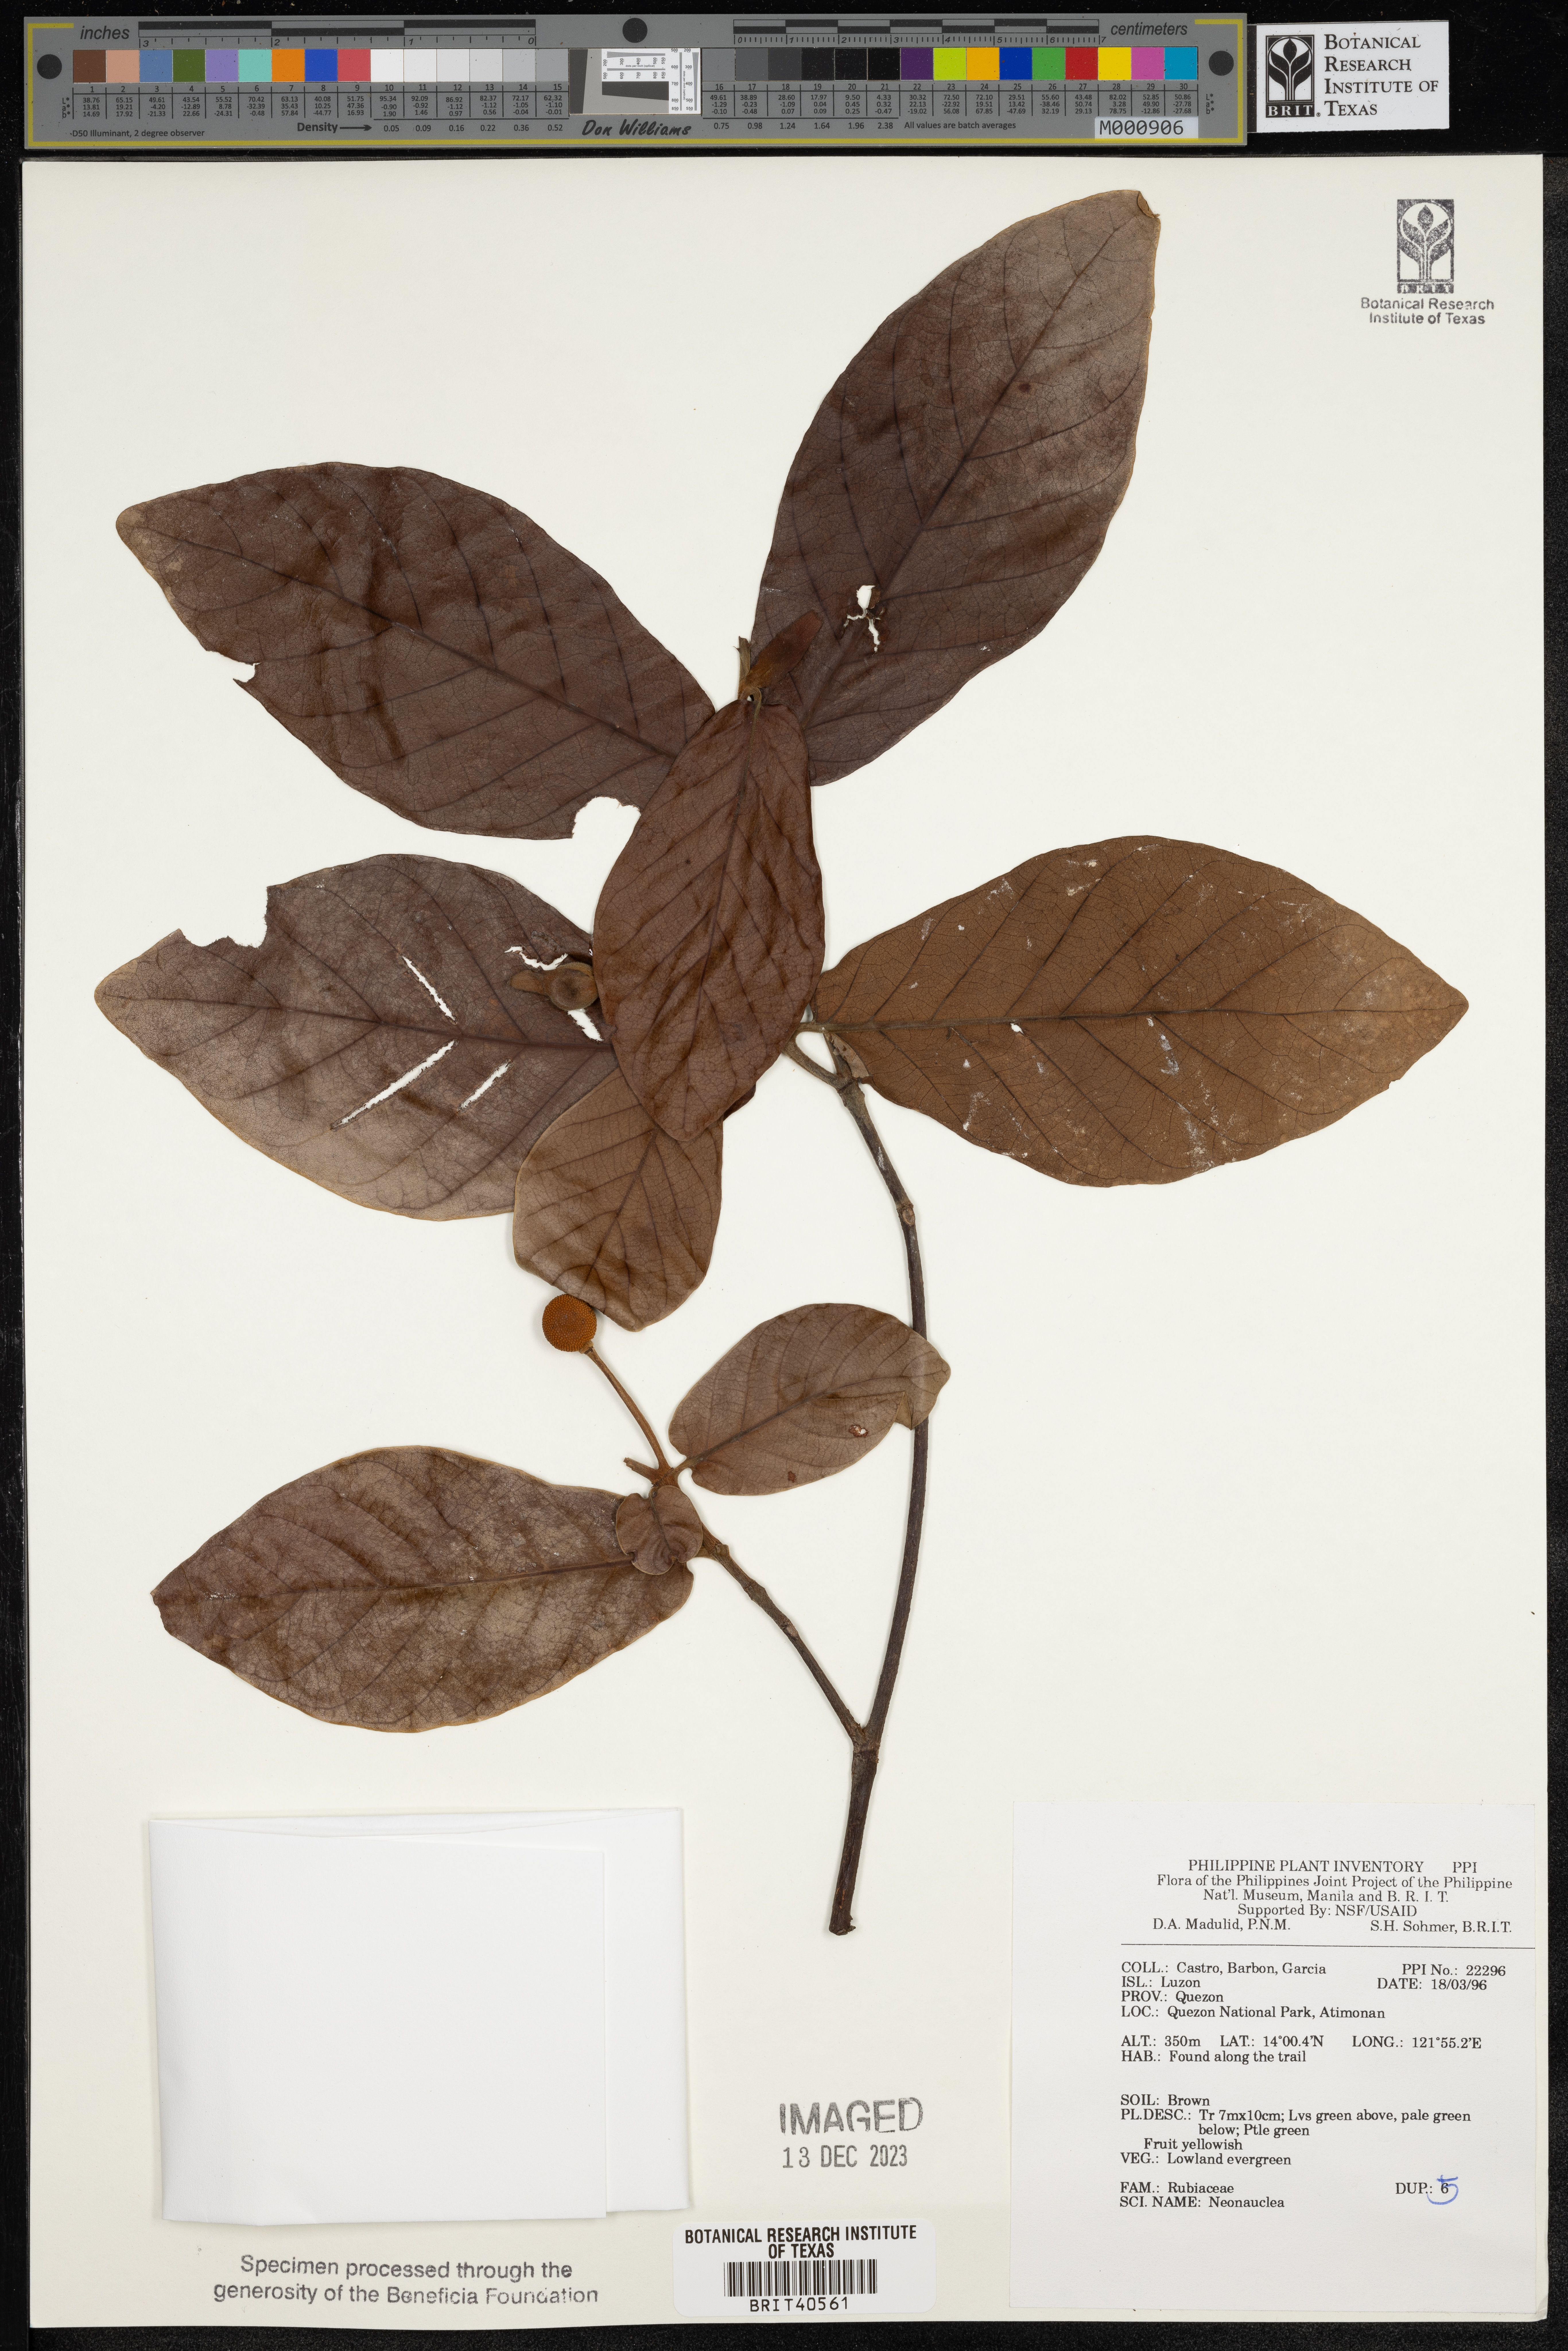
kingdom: Plantae
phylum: Tracheophyta
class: Magnoliopsida
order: Gentianales
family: Rubiaceae
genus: Neonauclea
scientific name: Neonauclea
